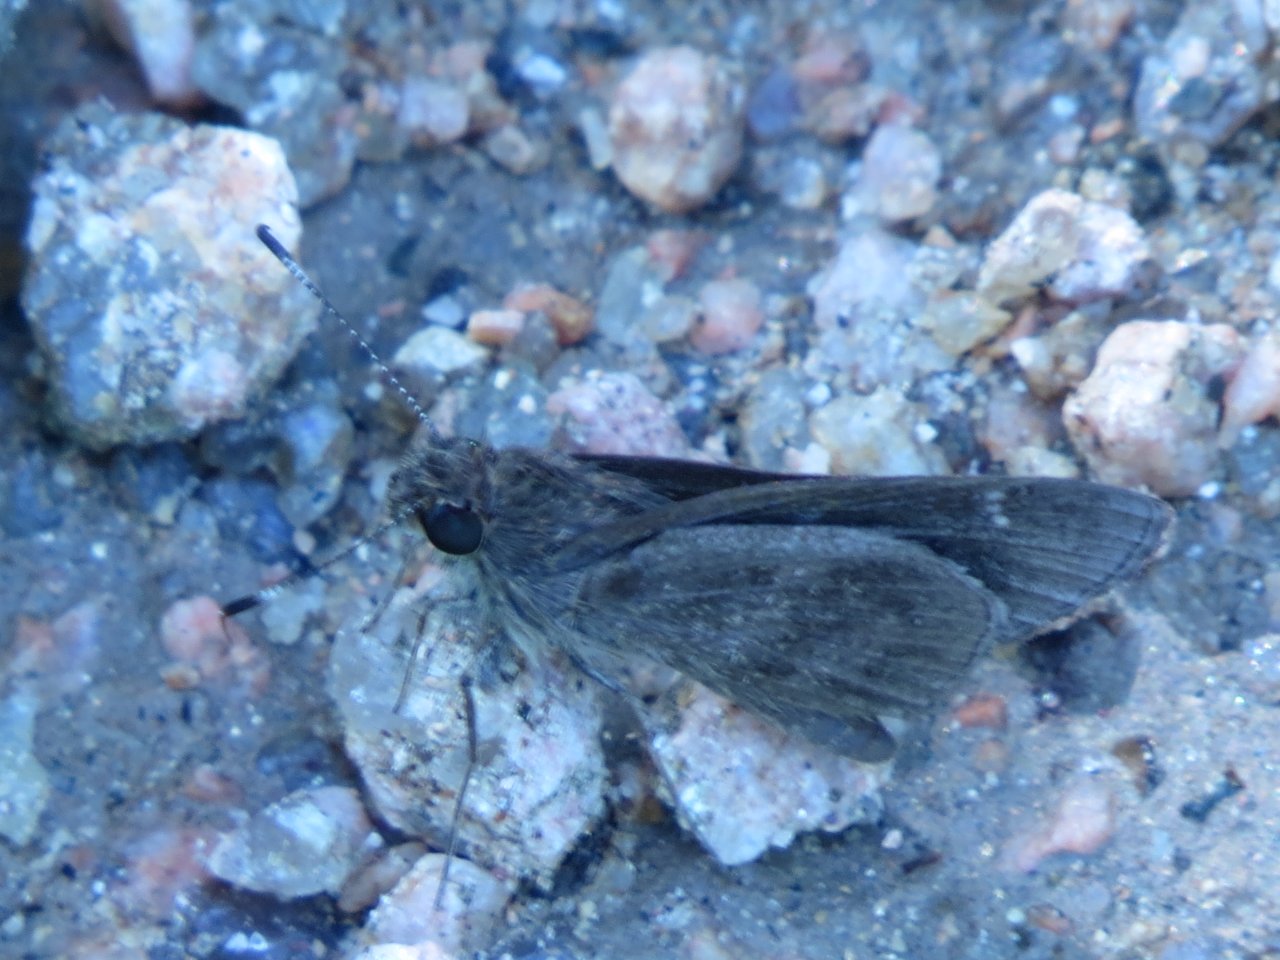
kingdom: Animalia
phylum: Arthropoda
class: Insecta
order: Lepidoptera
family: Hesperiidae
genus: Lerema
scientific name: Lerema accius
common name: Clouded Skipper
